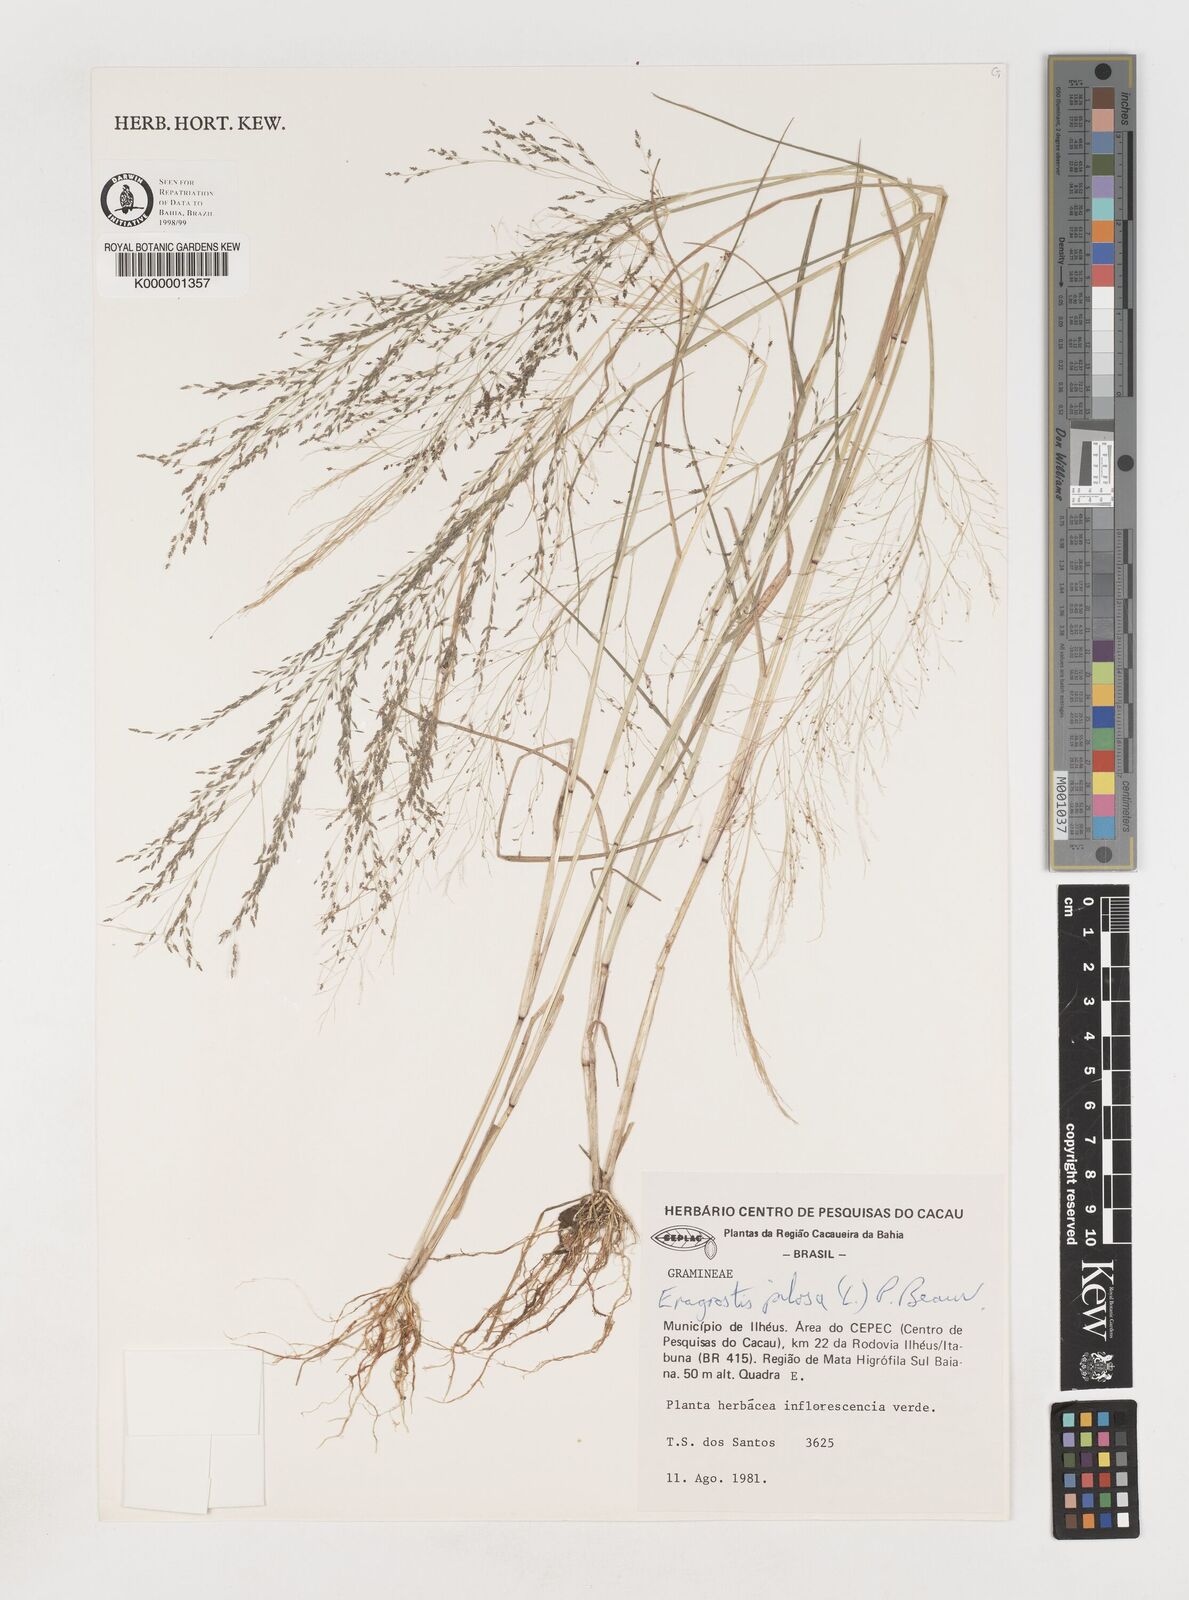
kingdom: Plantae
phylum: Tracheophyta
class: Liliopsida
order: Poales
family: Poaceae
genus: Eragrostis
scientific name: Eragrostis pilosa
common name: Indian lovegrass
